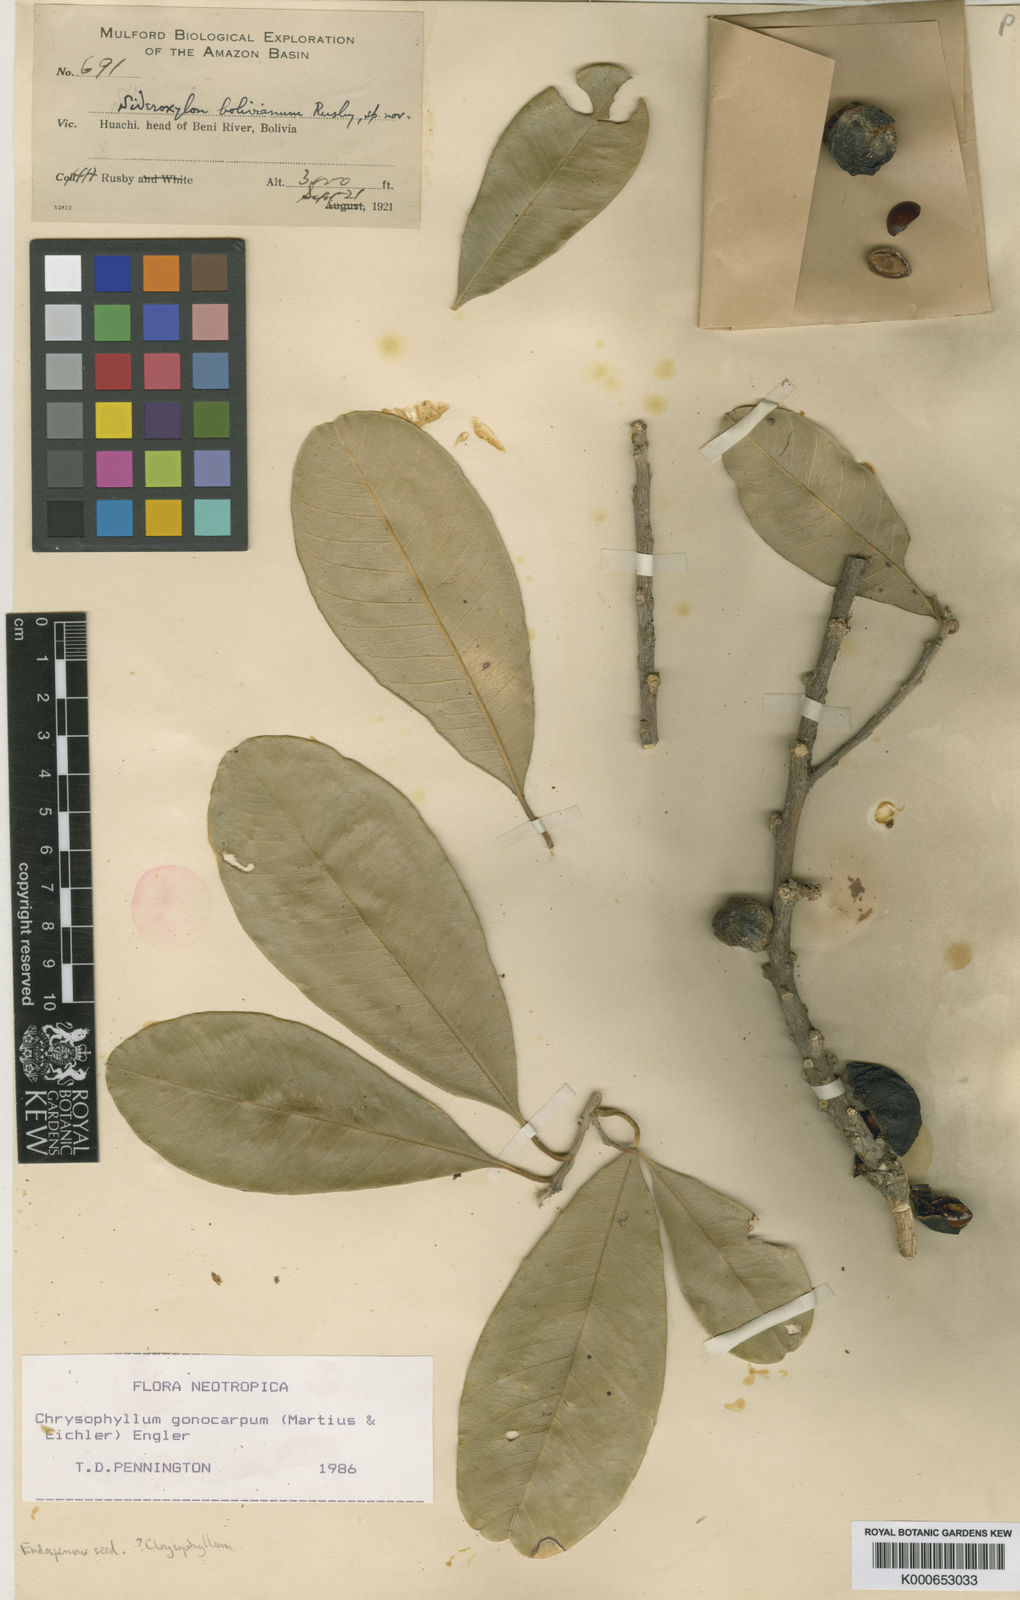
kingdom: Plantae
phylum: Tracheophyta
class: Magnoliopsida
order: Ericales
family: Sapotaceae
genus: Chrysophyllum
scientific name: Chrysophyllum gonocarpum
